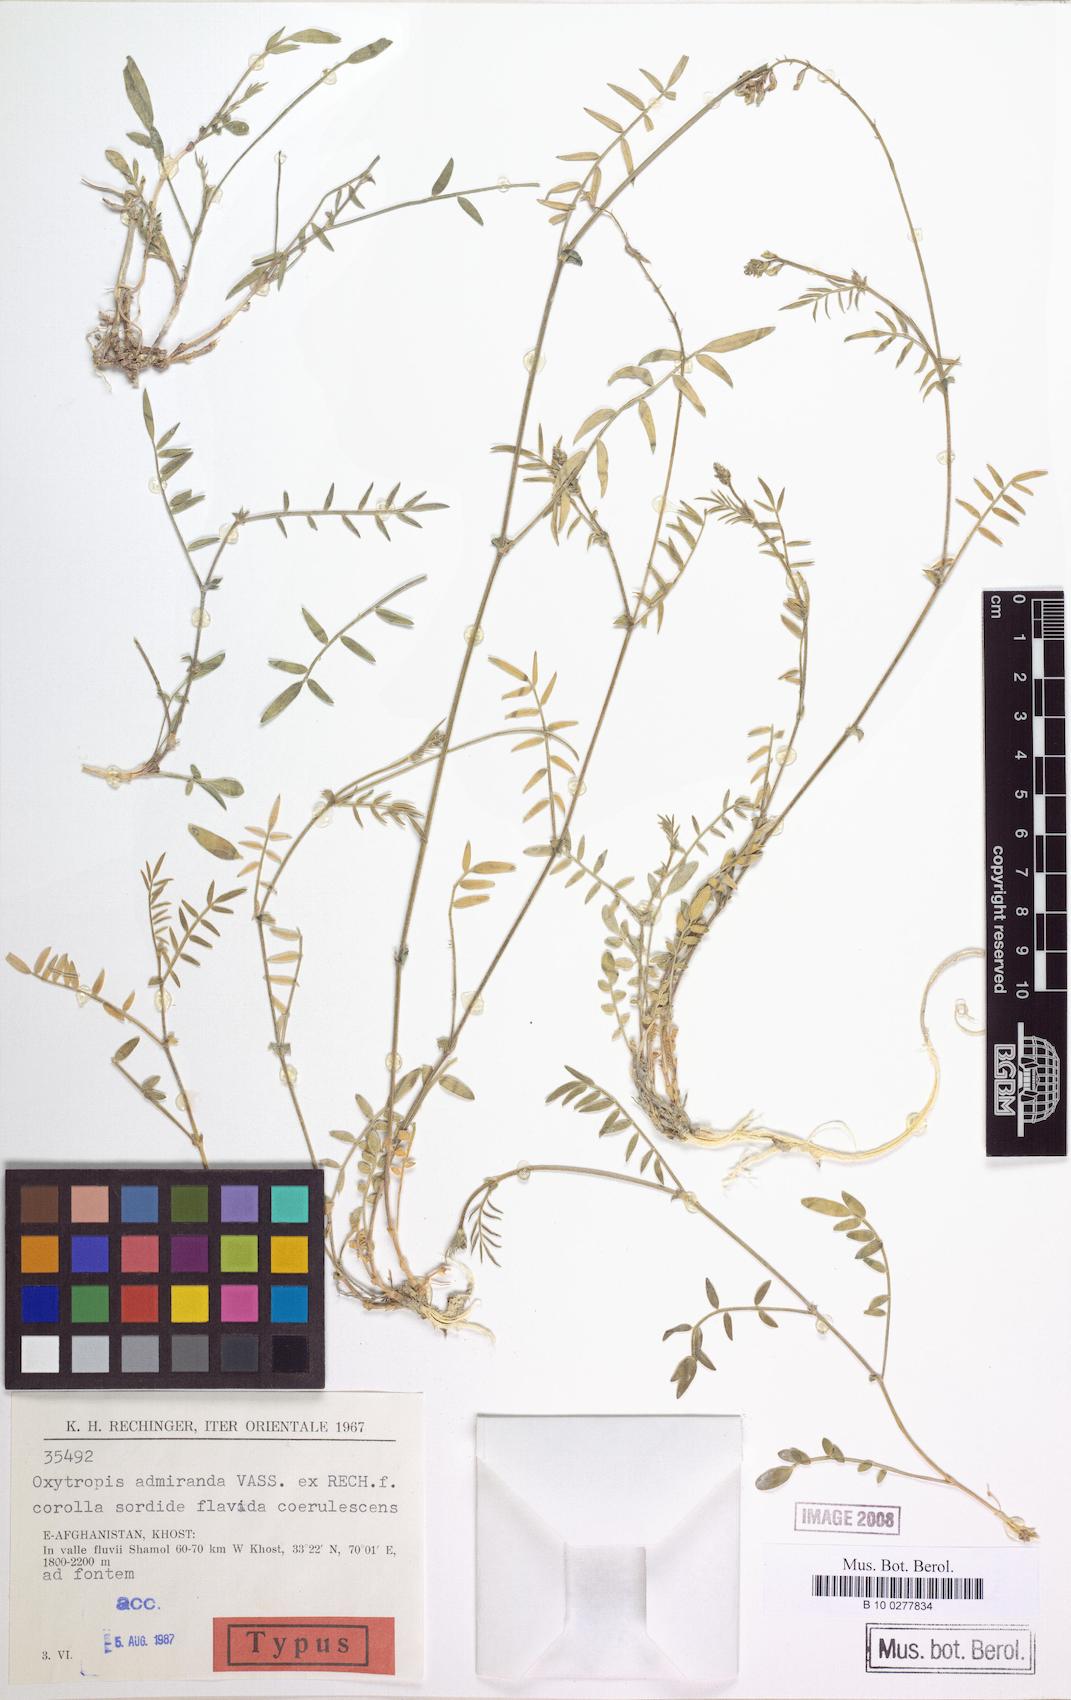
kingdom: Plantae
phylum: Tracheophyta
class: Magnoliopsida
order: Fabales
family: Fabaceae
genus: Oxytropis
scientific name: Oxytropis admiranda
